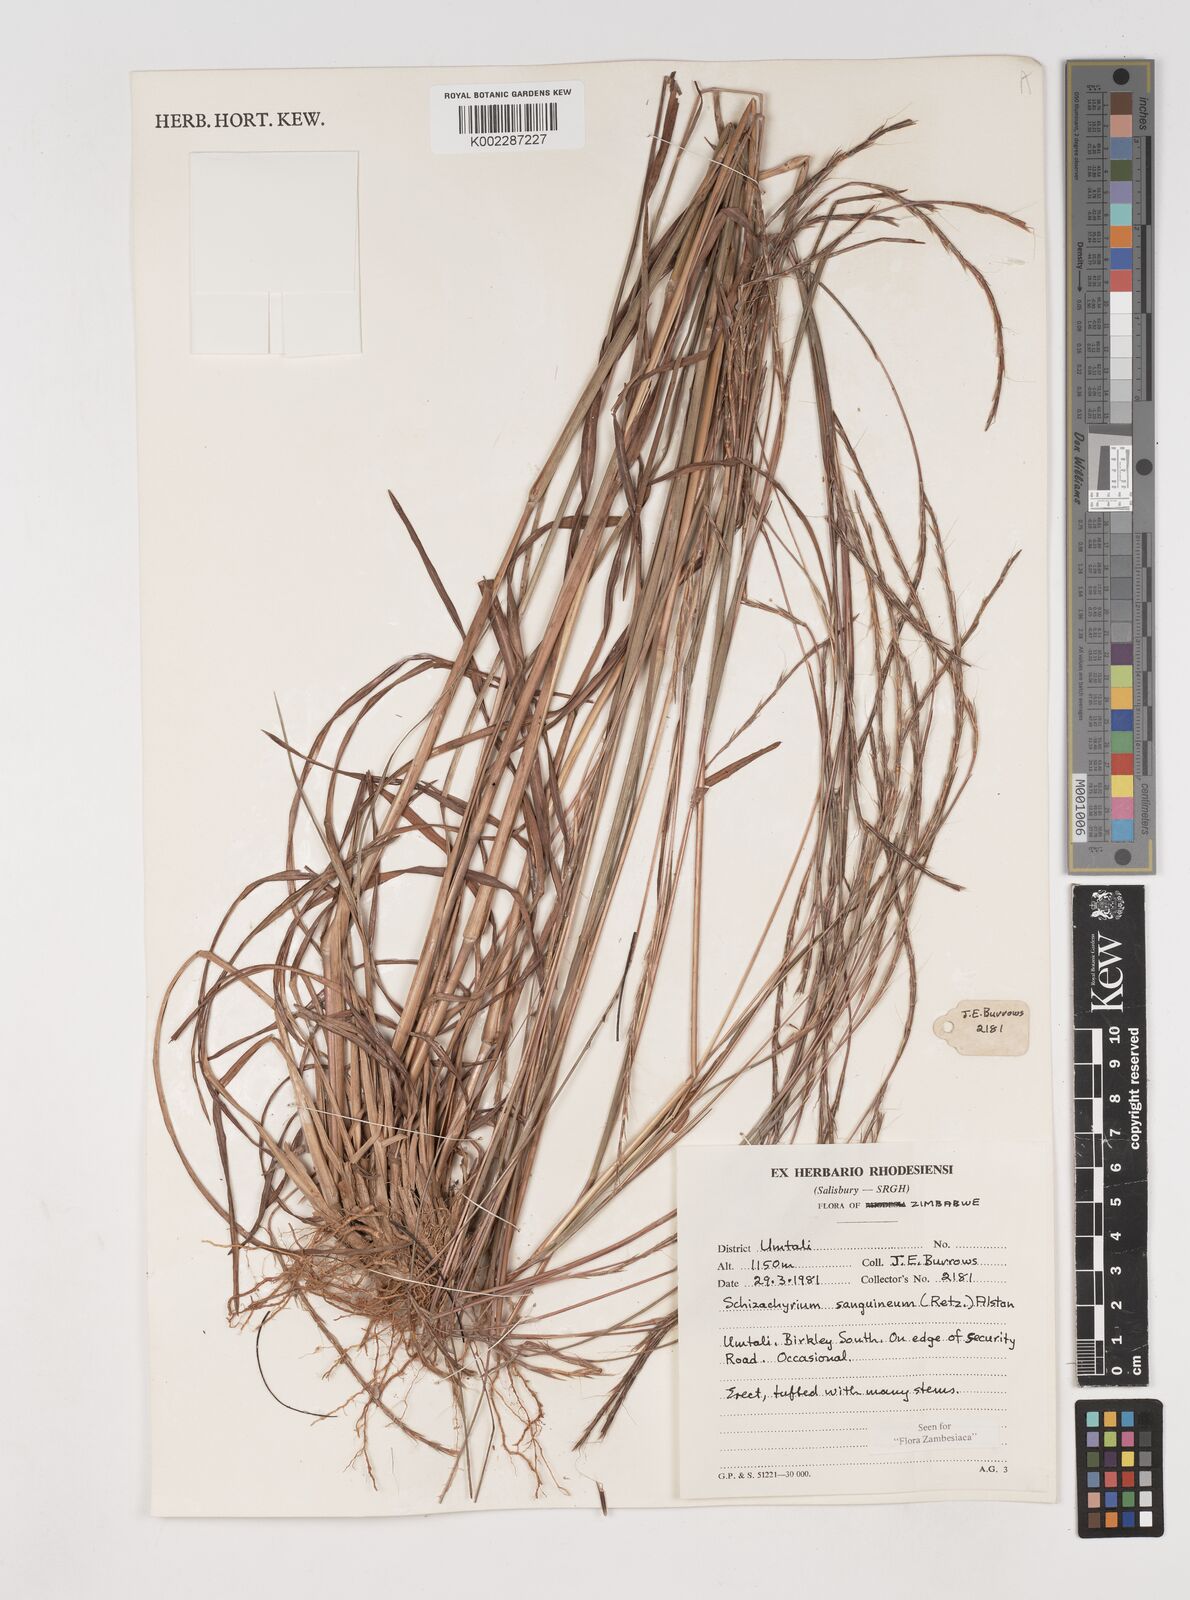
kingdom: Plantae
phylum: Tracheophyta
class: Liliopsida
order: Poales
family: Poaceae
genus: Schizachyrium
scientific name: Schizachyrium sanguineum
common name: Crimson bluestem
